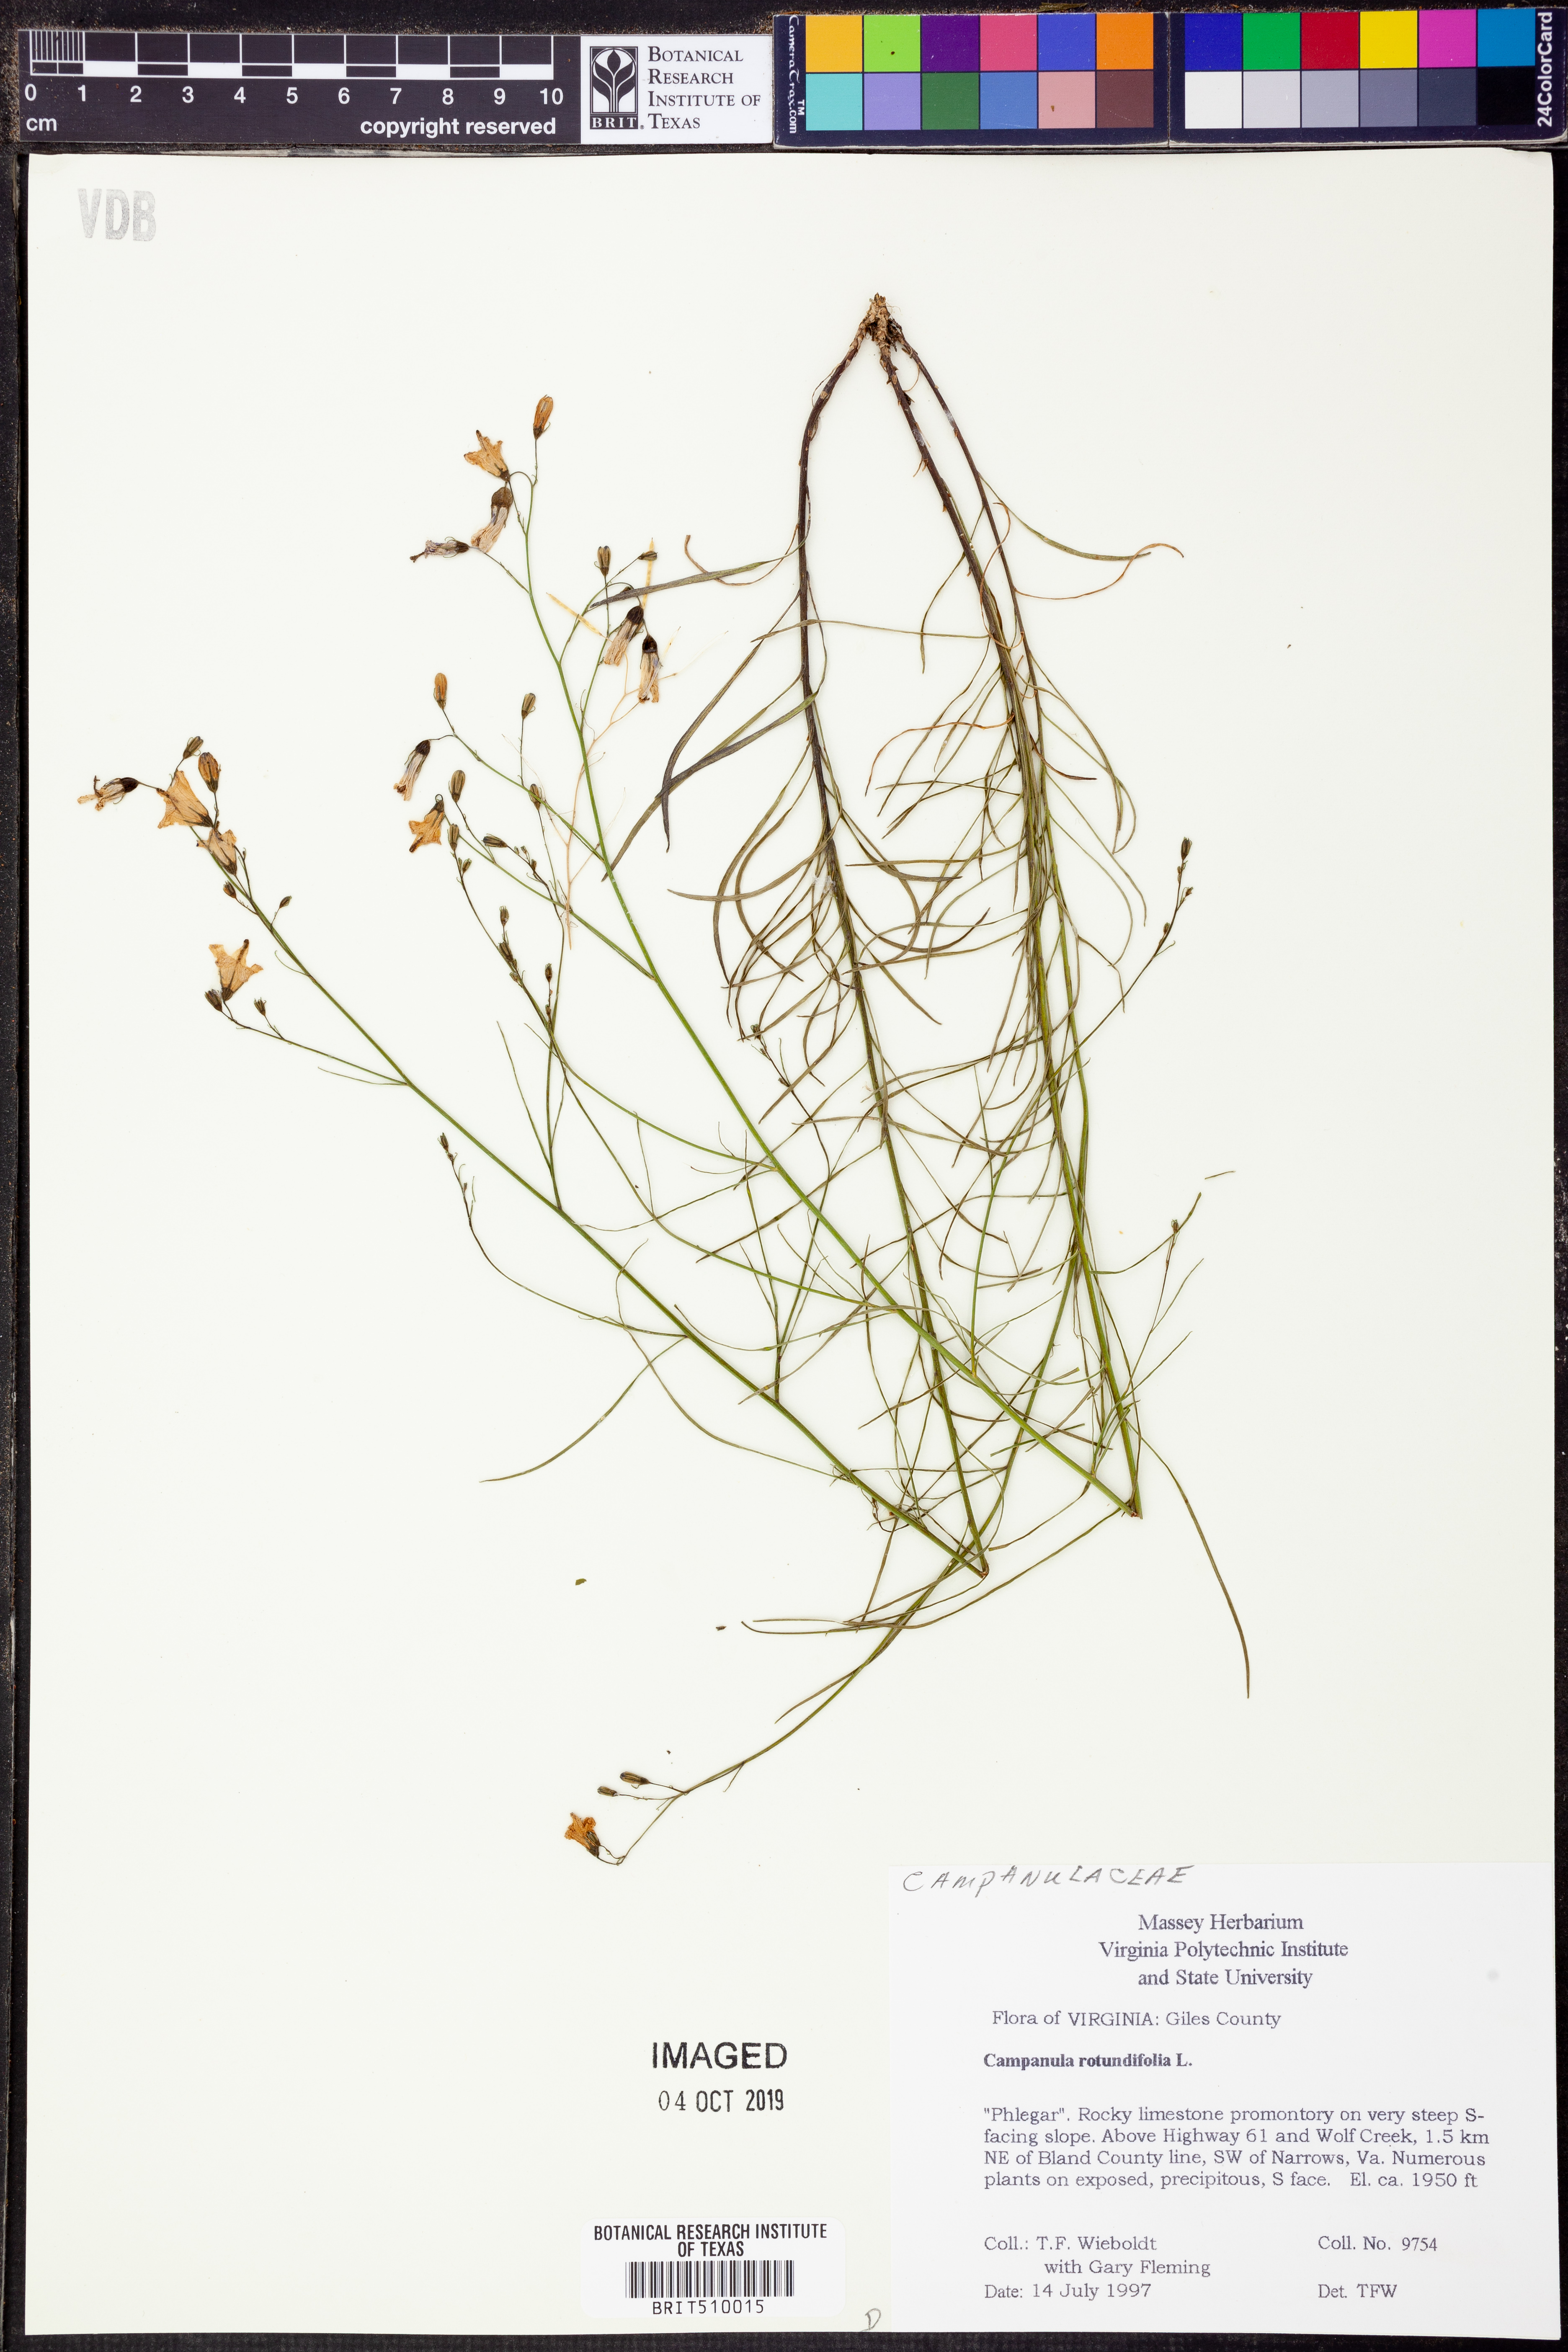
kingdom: Plantae
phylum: Tracheophyta
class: Magnoliopsida
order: Asterales
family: Campanulaceae
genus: Campanula
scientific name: Campanula rotundifolia
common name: Harebell
